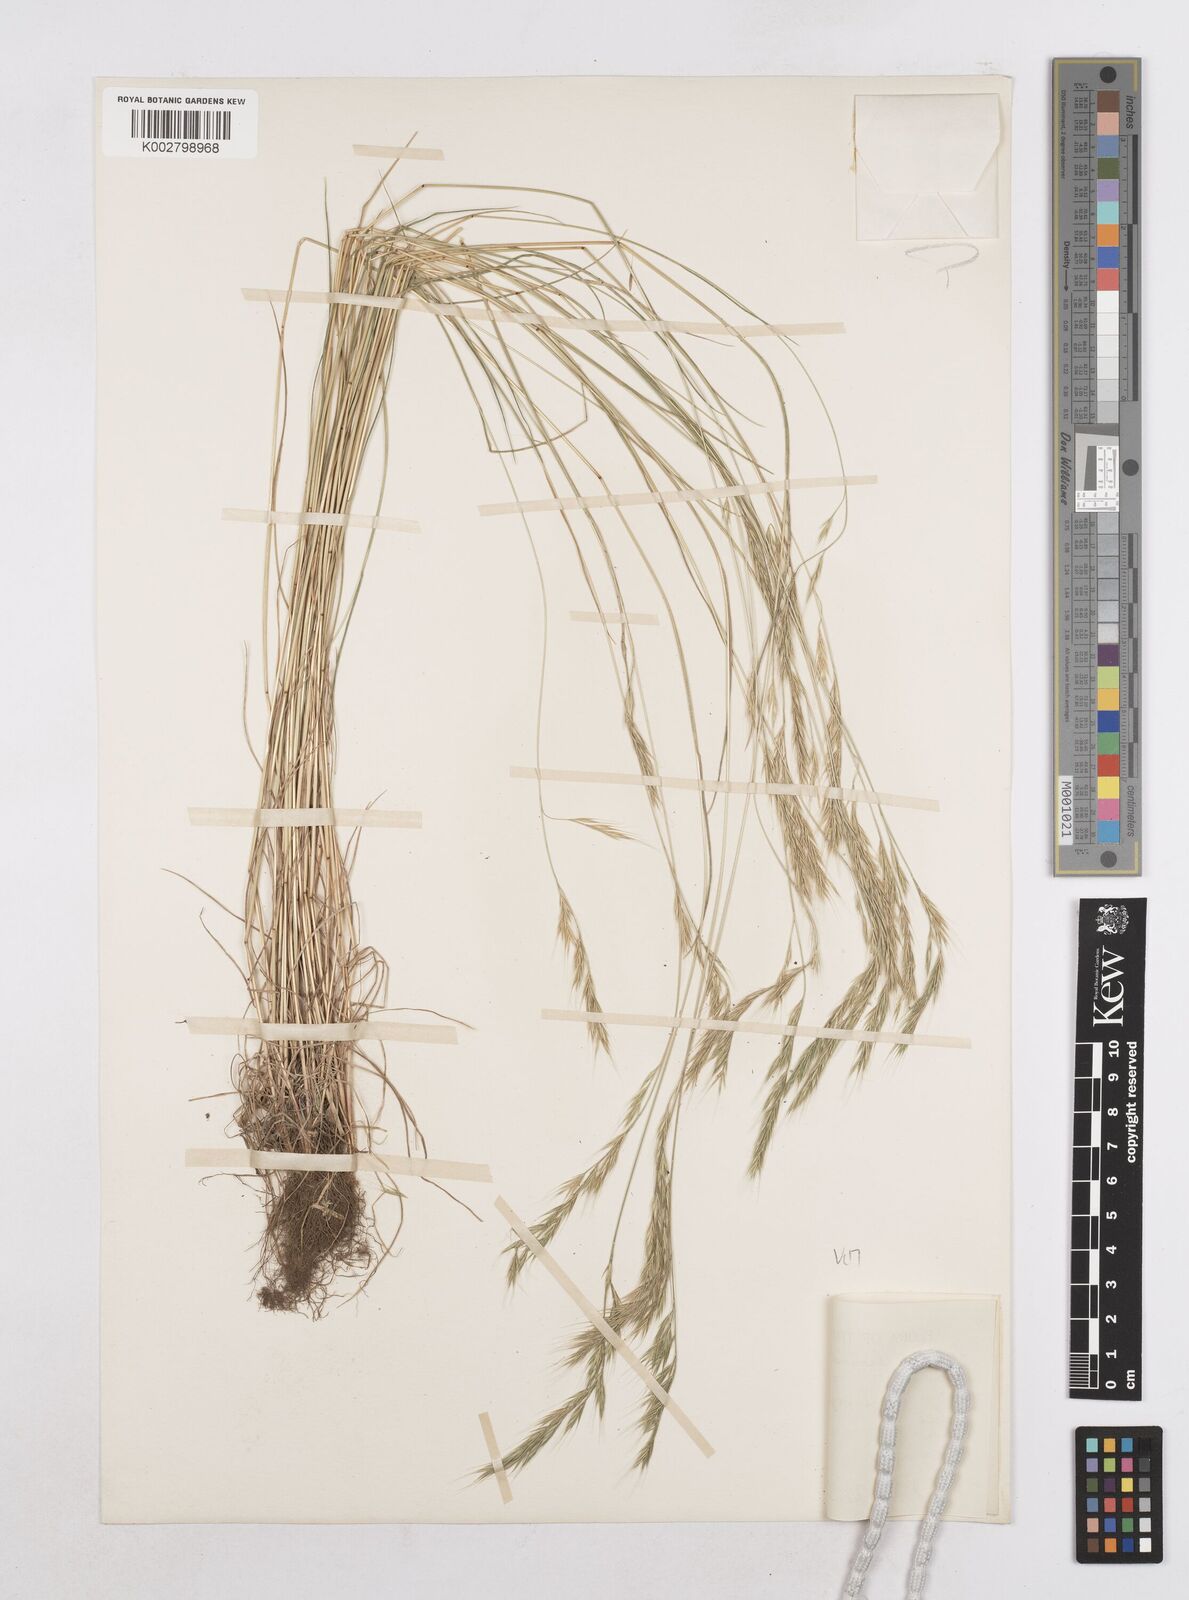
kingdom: Plantae
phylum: Tracheophyta
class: Liliopsida
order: Poales
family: Poaceae
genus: Festuca
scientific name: Festuca bromoides
